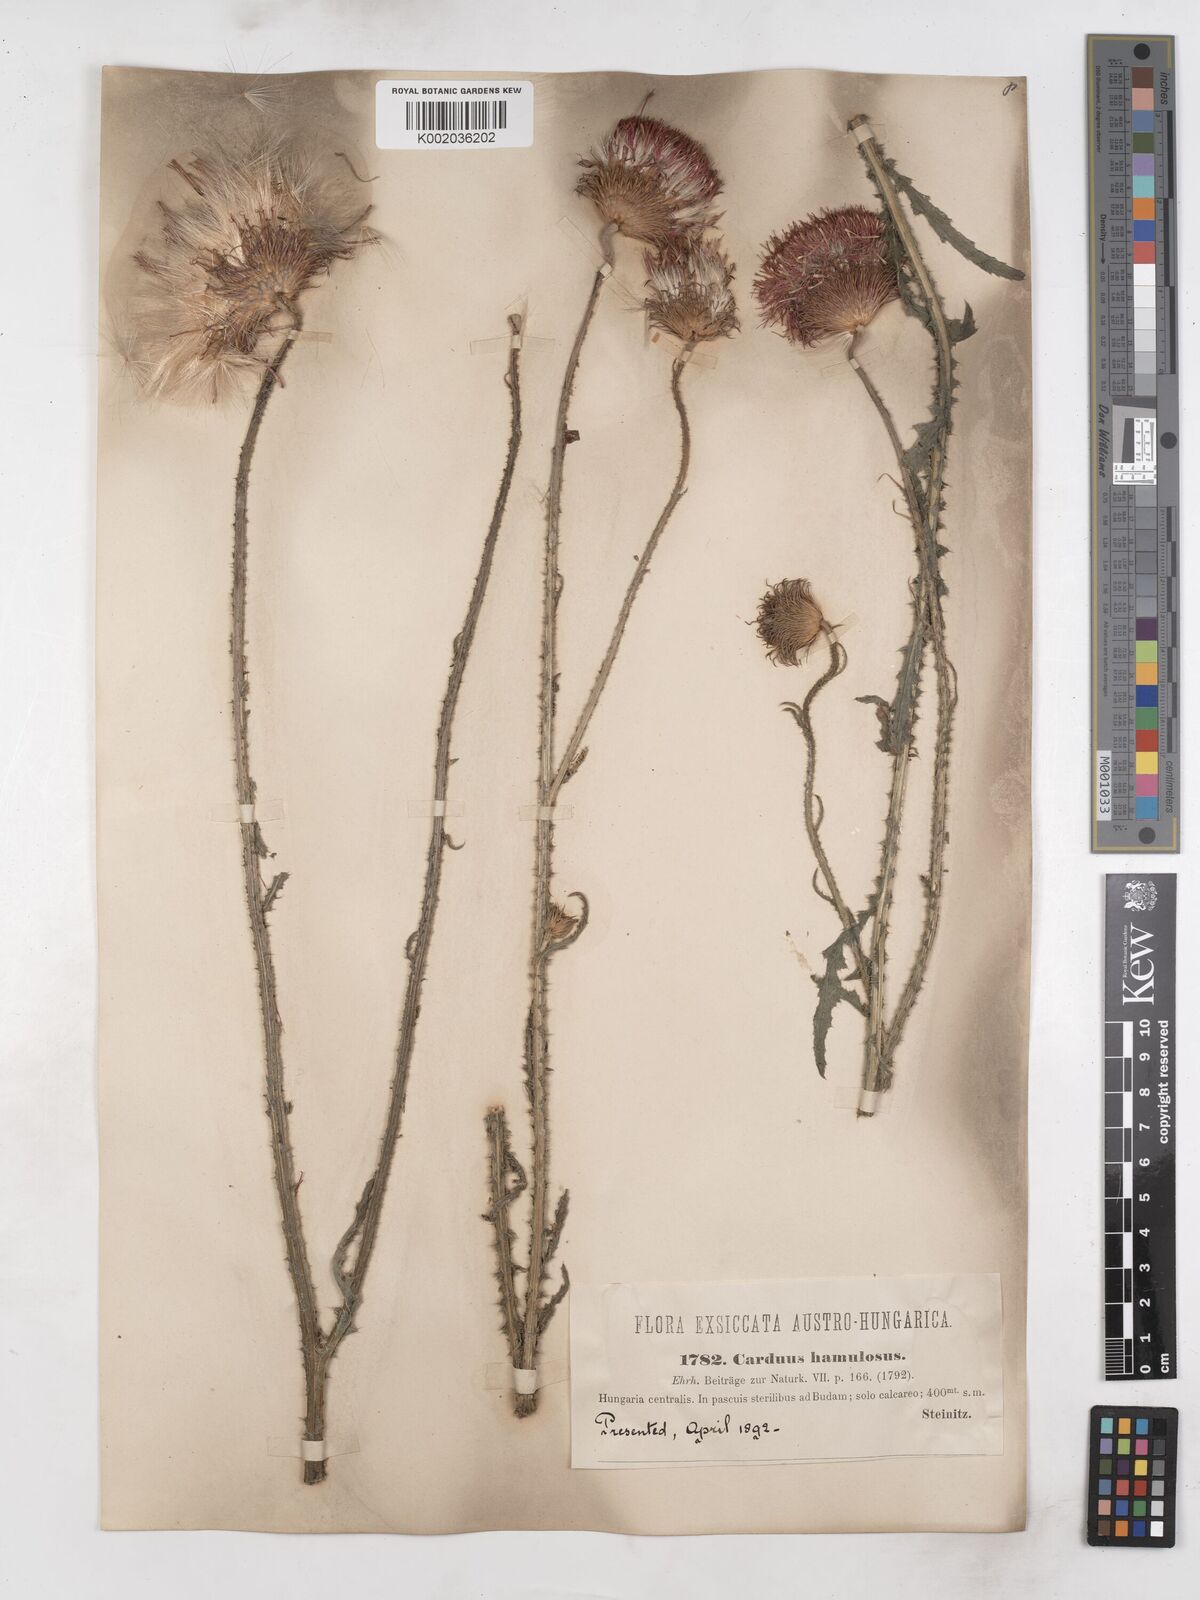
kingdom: Plantae
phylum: Tracheophyta
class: Magnoliopsida
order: Asterales
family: Asteraceae
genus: Carduus
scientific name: Carduus hamulosus
